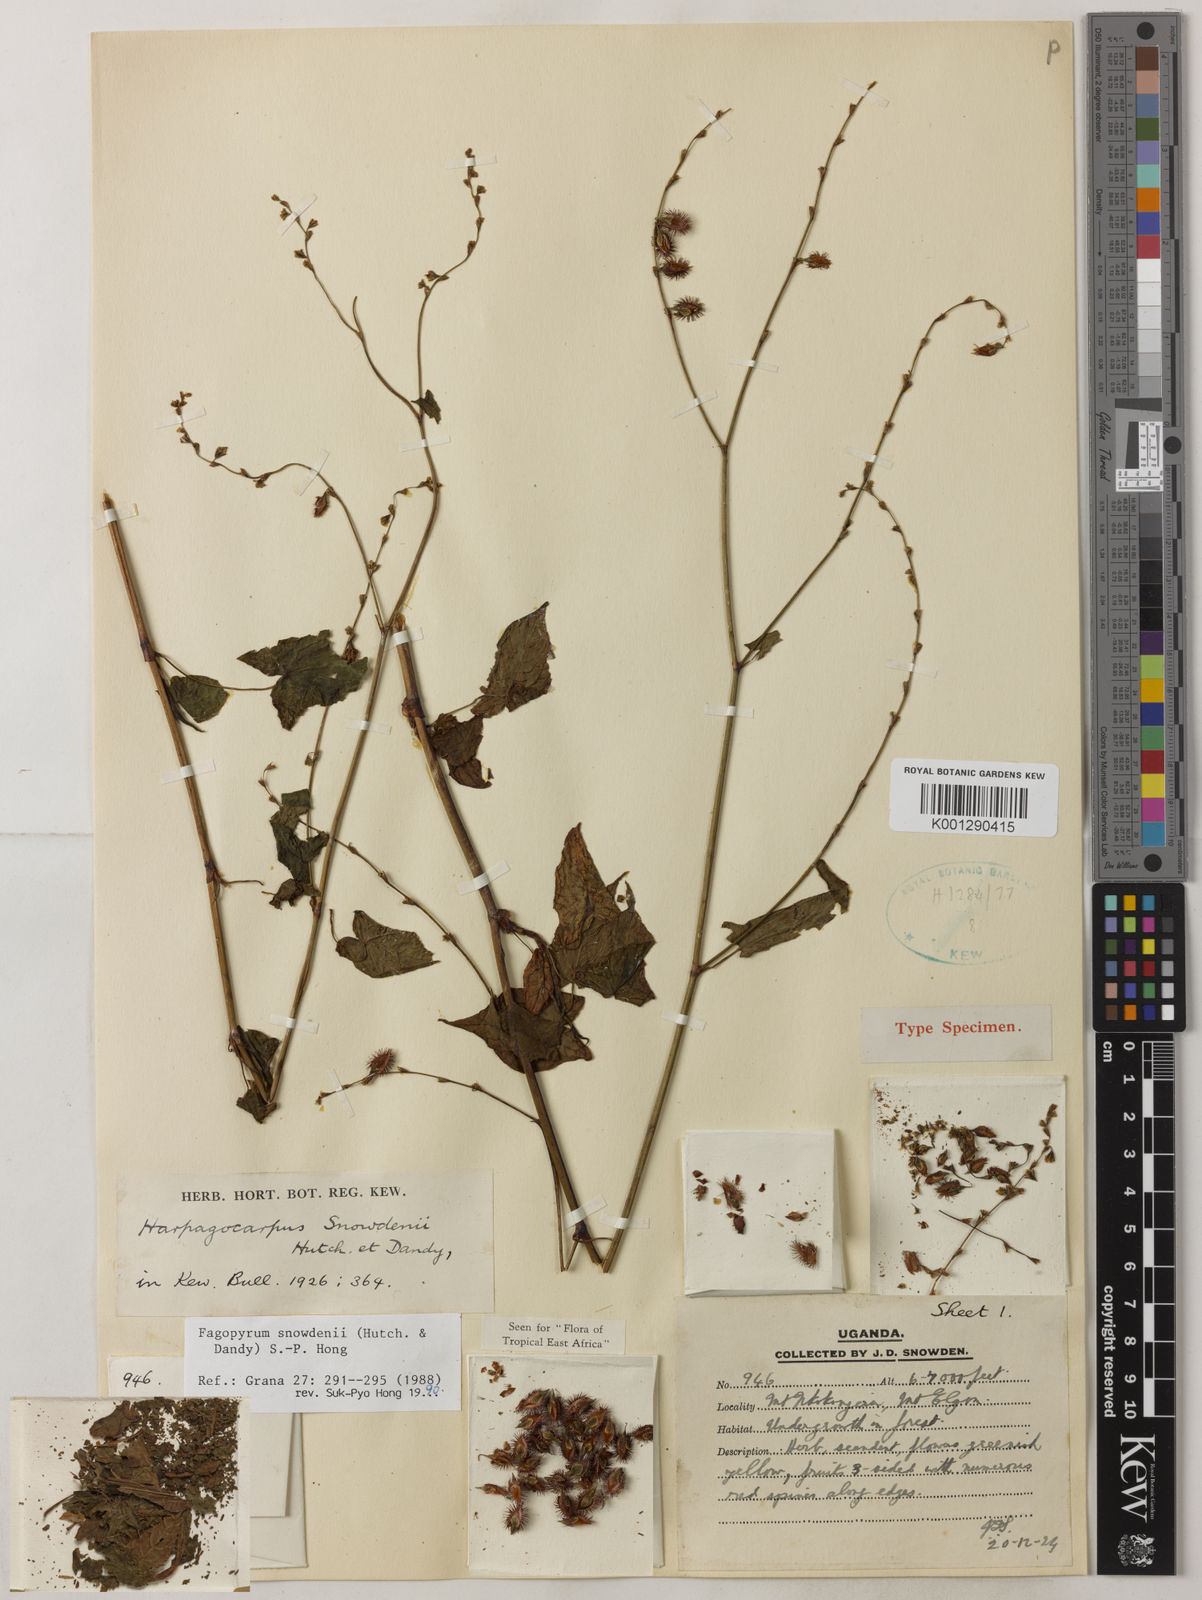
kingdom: Plantae
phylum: Tracheophyta
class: Magnoliopsida
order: Caryophyllales
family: Polygonaceae
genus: Harpagocarpus
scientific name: Harpagocarpus snowdenii
